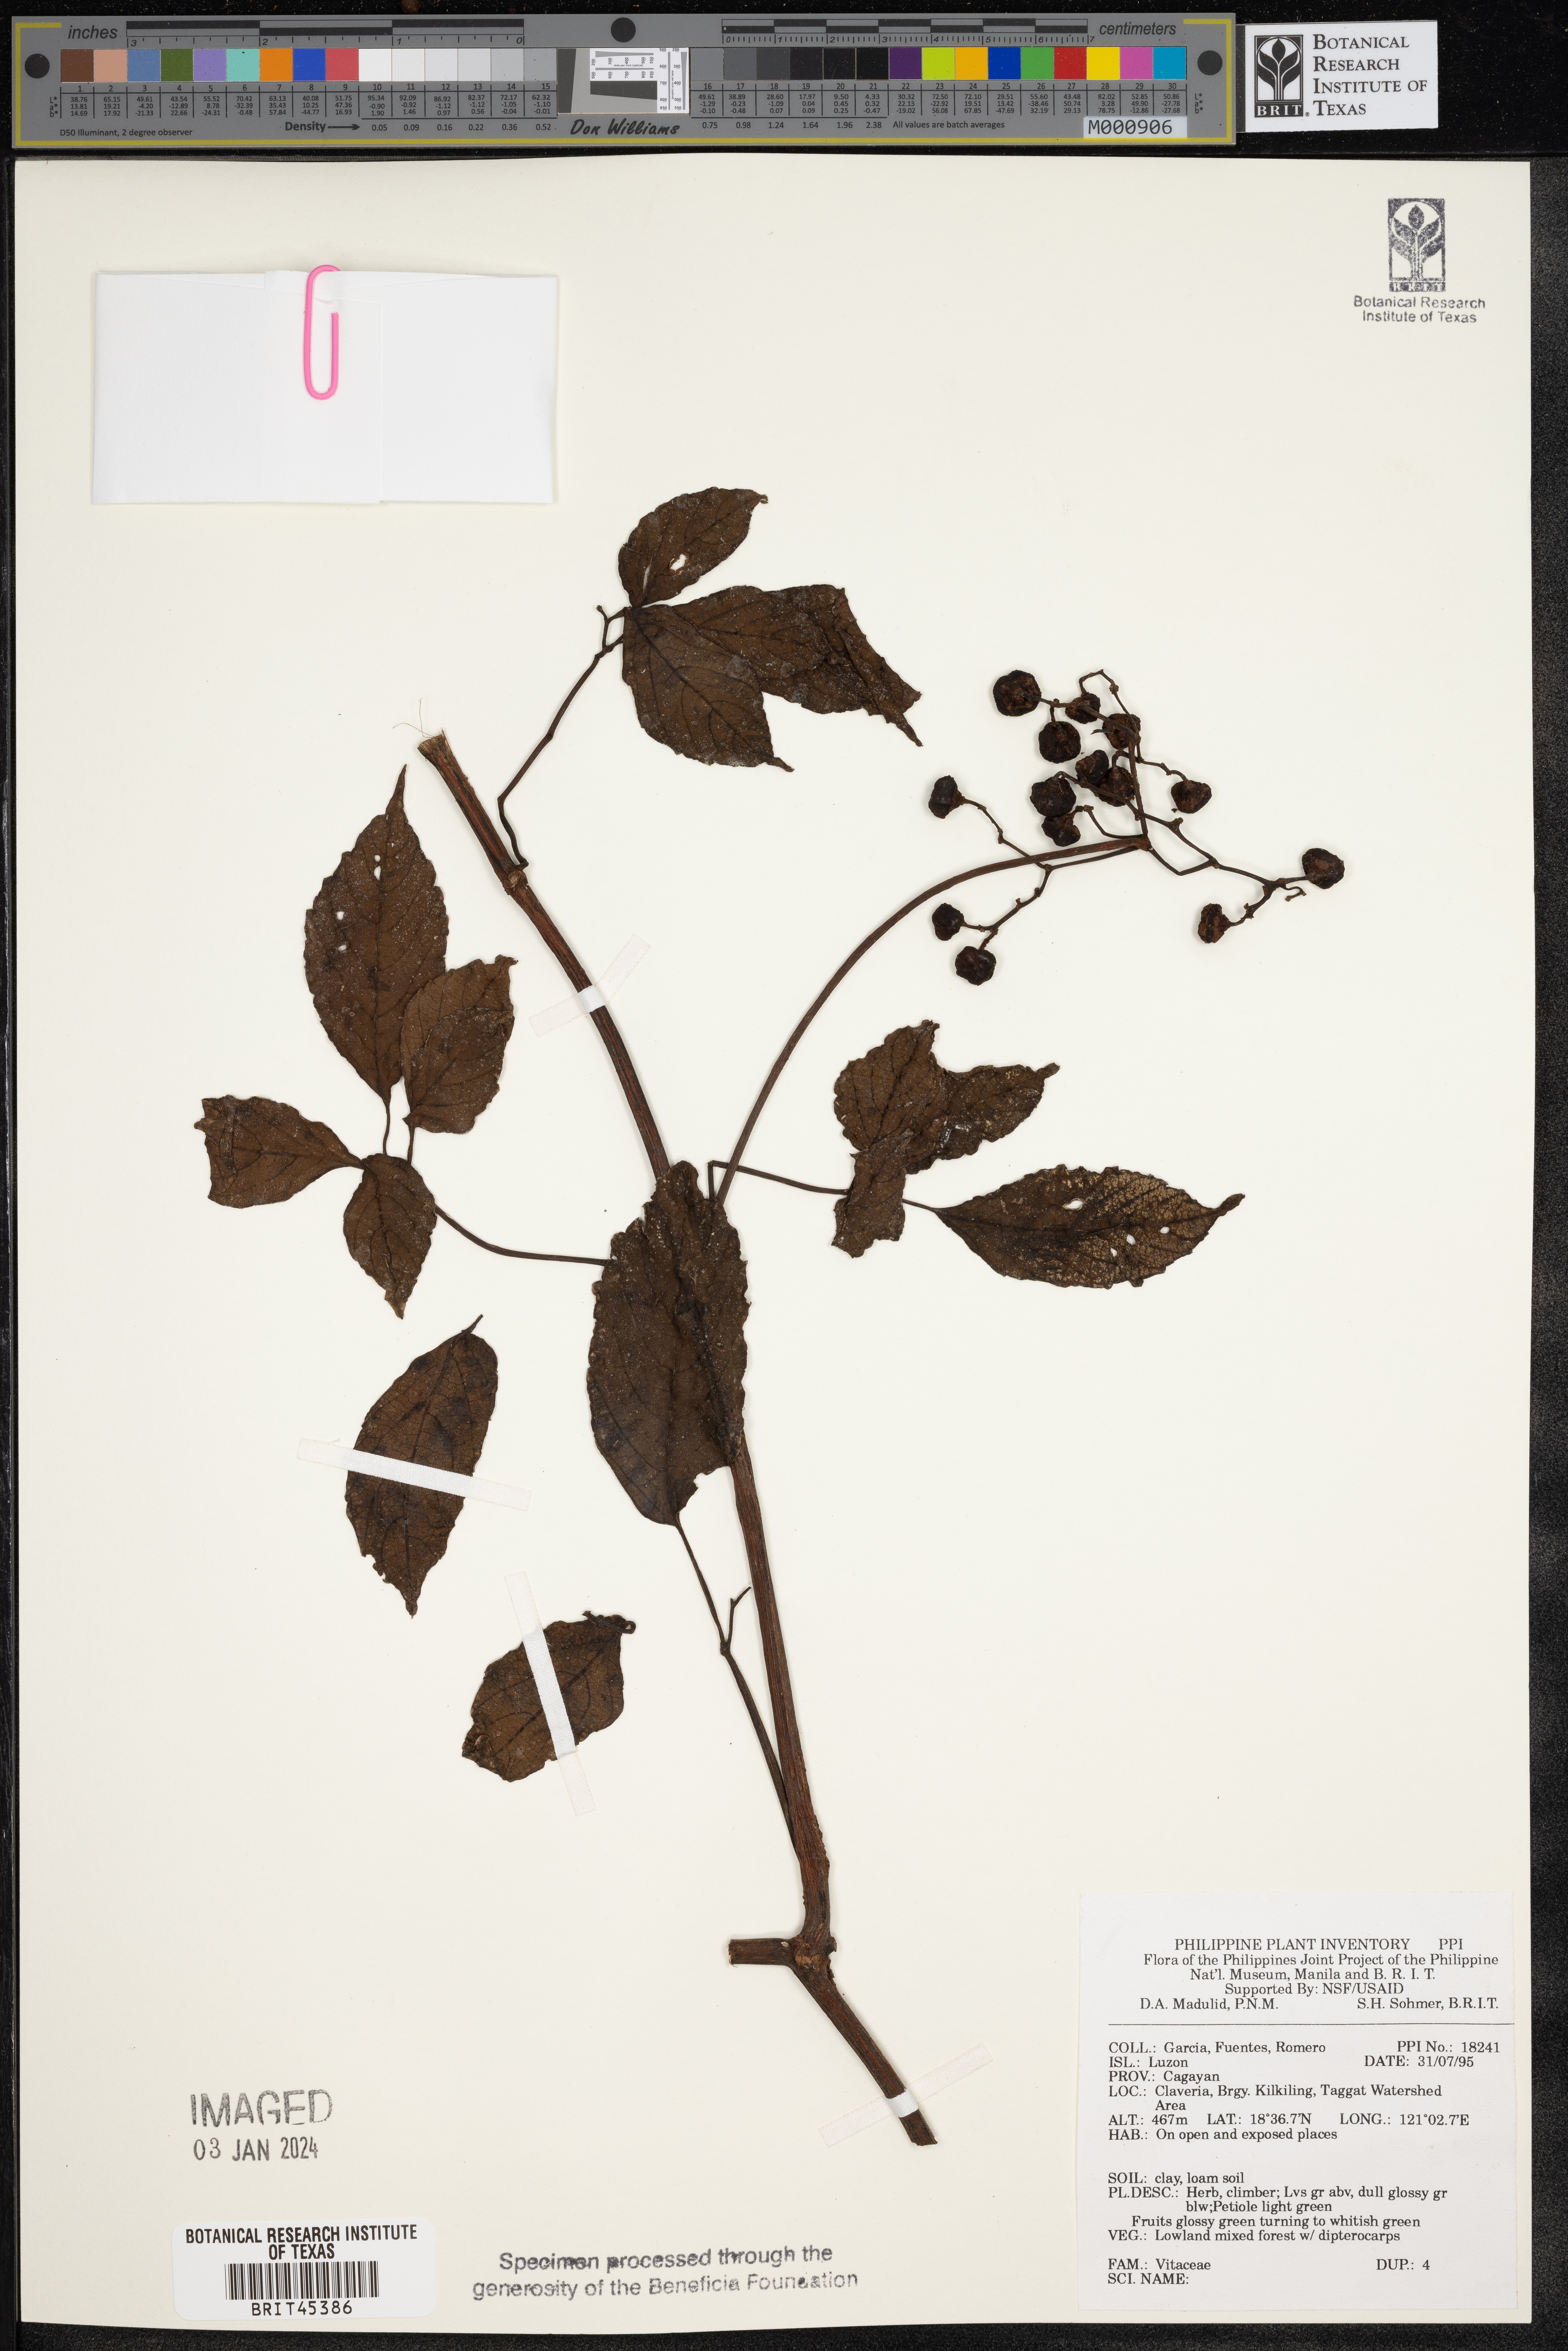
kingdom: Plantae
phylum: Tracheophyta
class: Magnoliopsida
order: Vitales
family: Vitaceae
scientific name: Vitaceae
